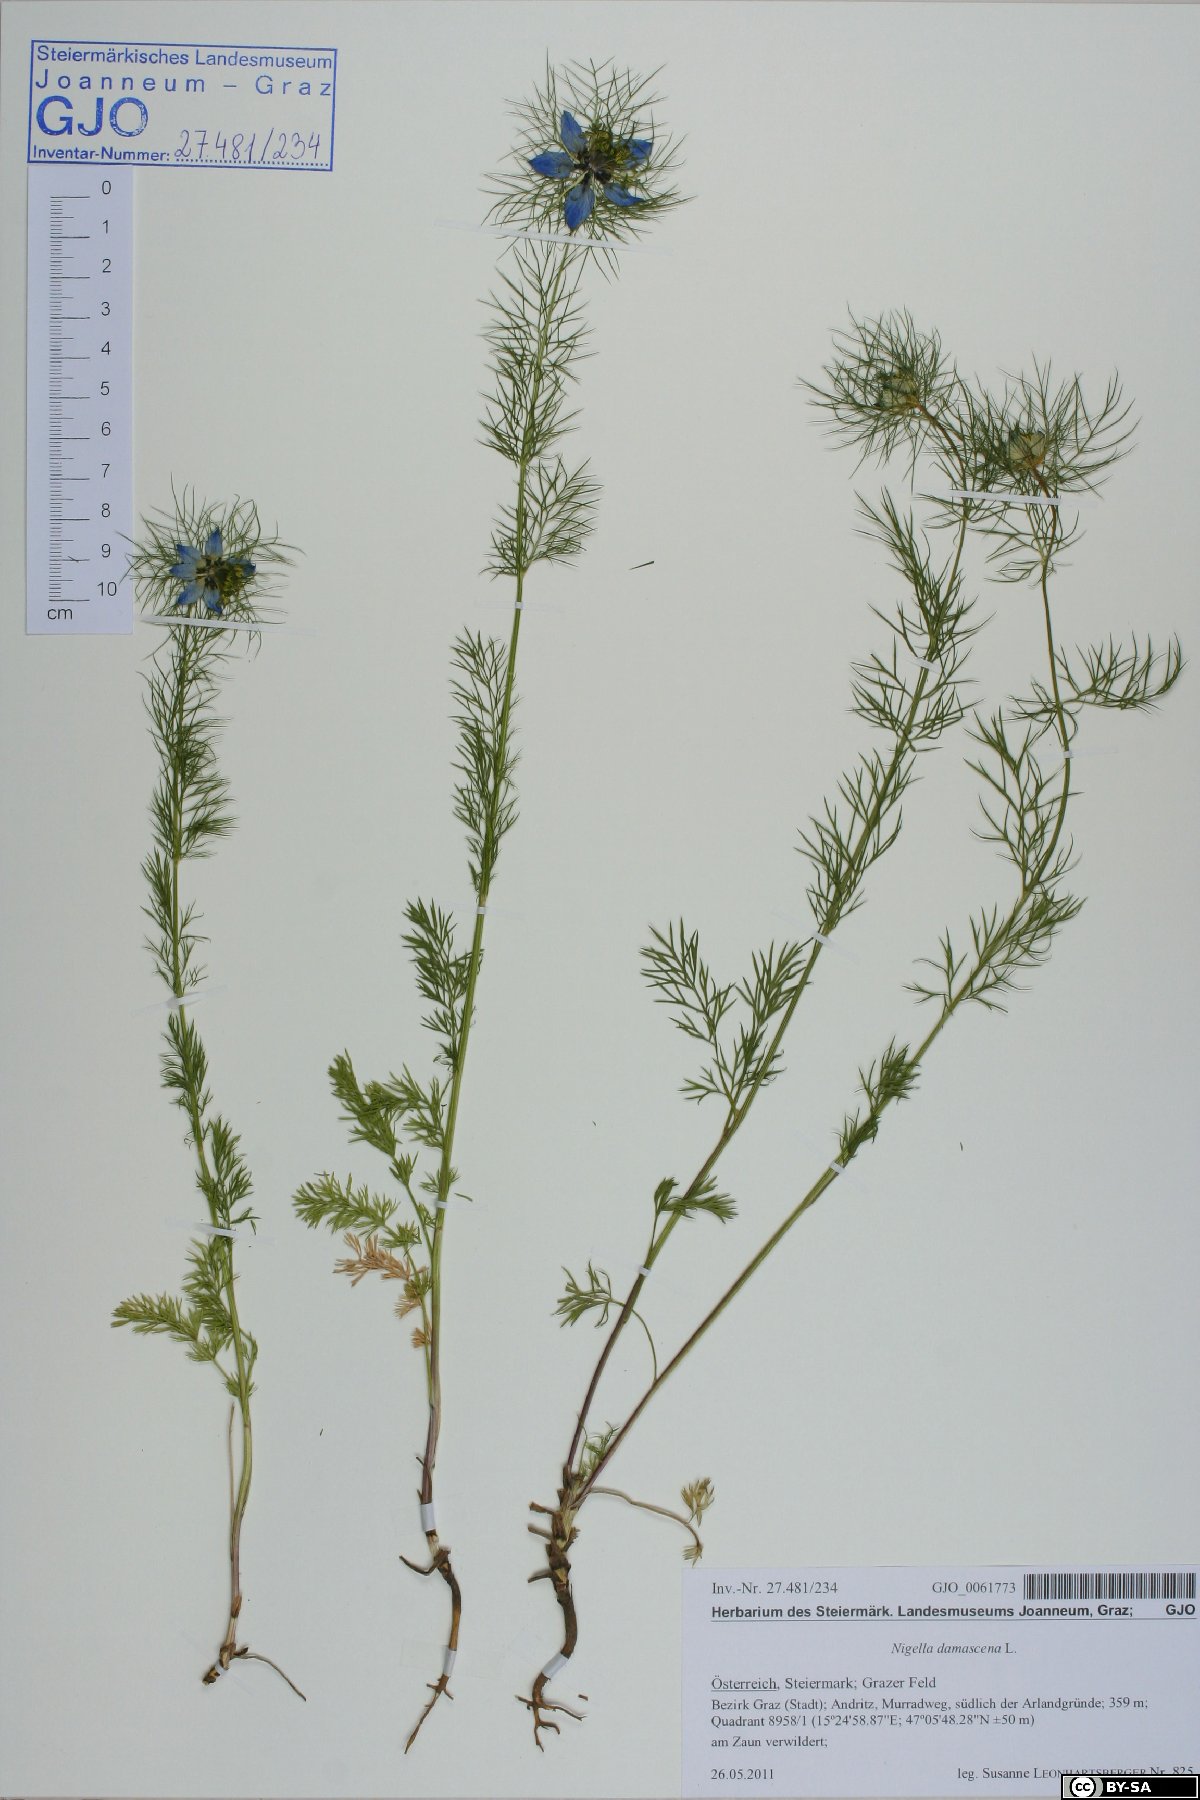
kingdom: Plantae
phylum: Tracheophyta
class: Magnoliopsida
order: Ranunculales
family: Ranunculaceae
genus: Nigella
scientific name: Nigella damascena
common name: Love-in-a-mist
